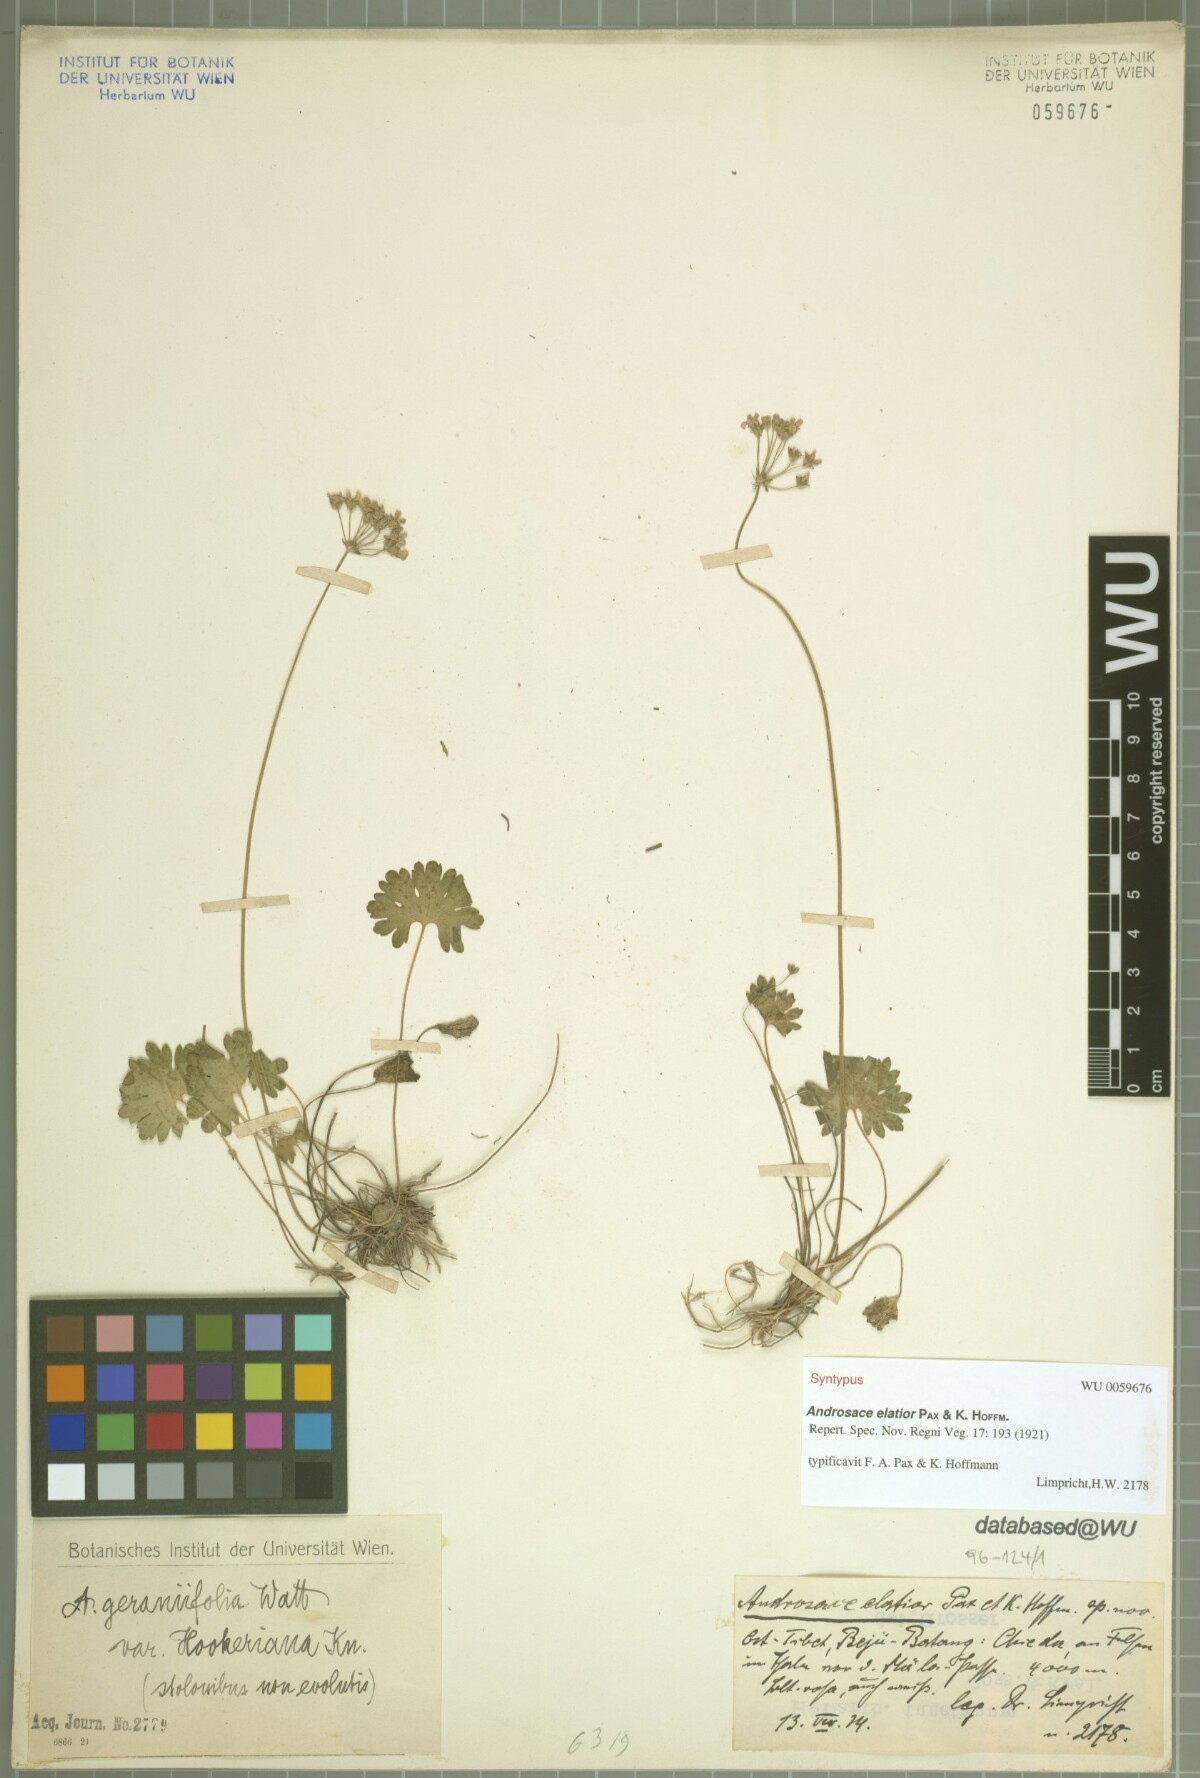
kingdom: Plantae
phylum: Tracheophyta
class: Magnoliopsida
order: Ericales
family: Primulaceae
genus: Androsace
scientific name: Androsace elatior
